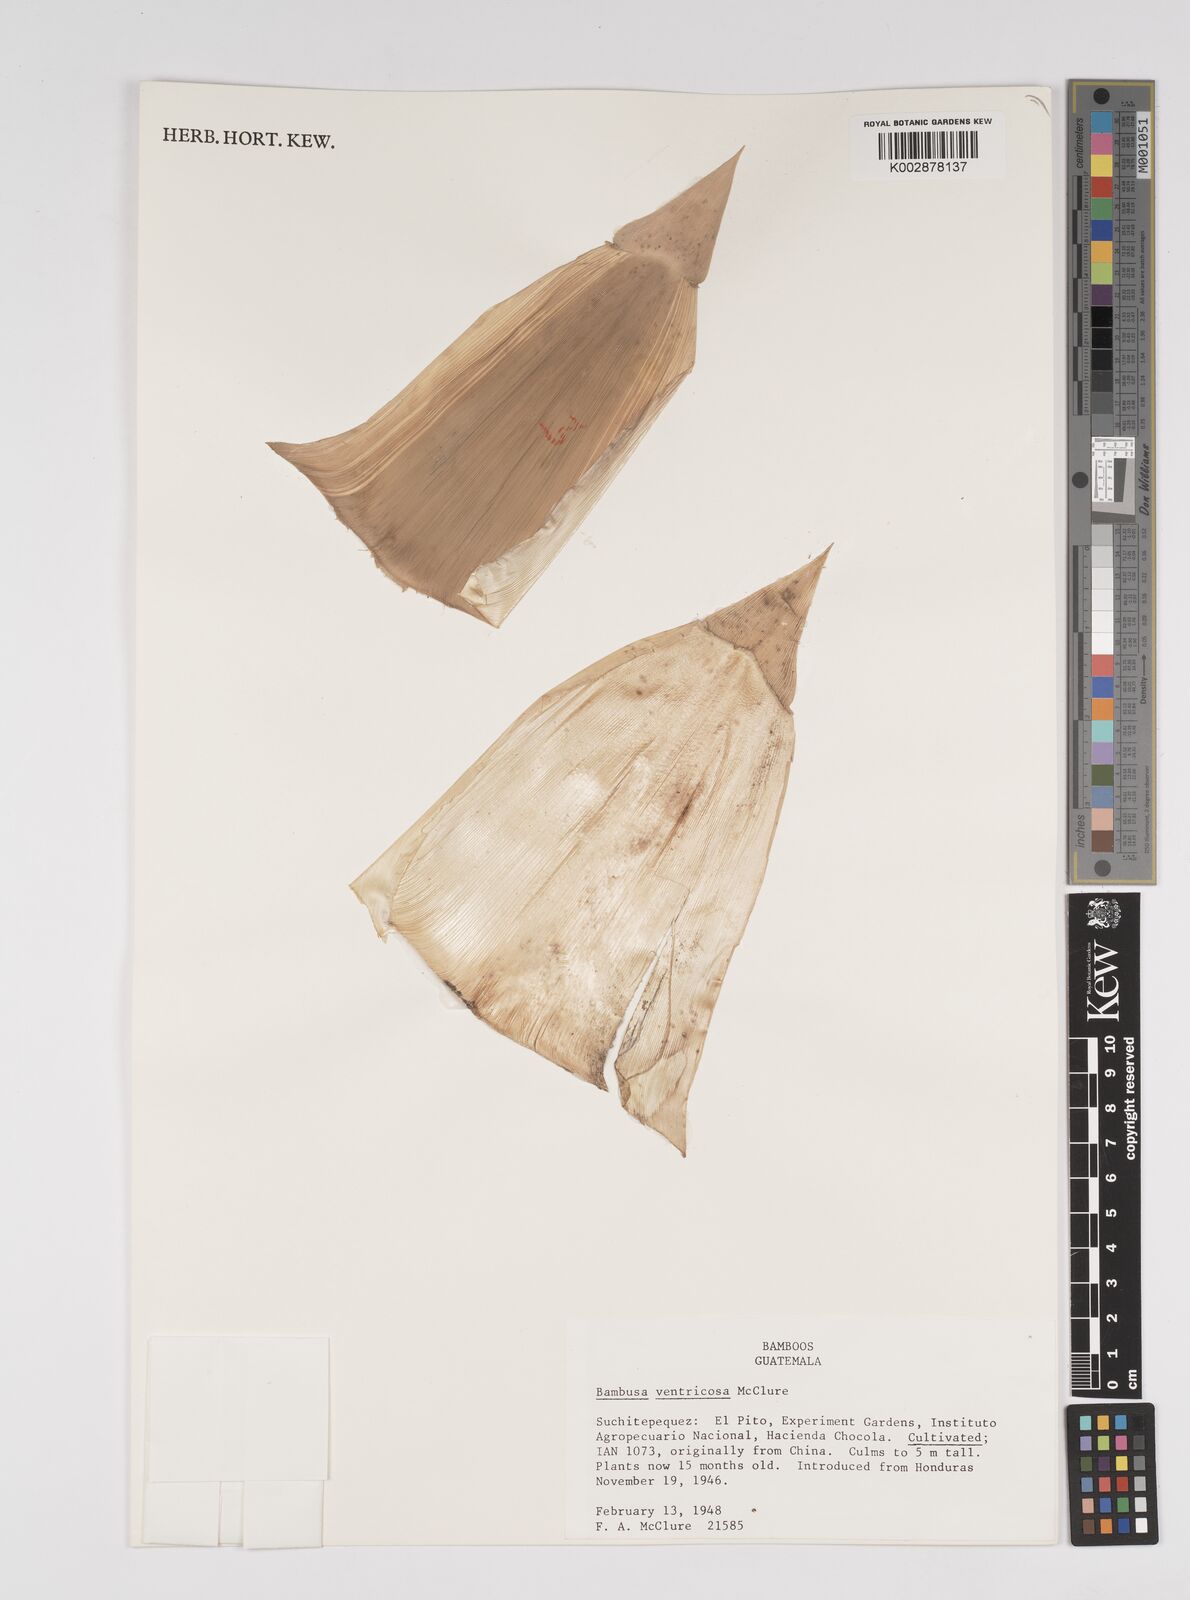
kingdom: Plantae
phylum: Tracheophyta
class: Liliopsida
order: Poales
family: Poaceae
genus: Bambusa
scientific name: Bambusa ventricosa
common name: Buddha bamboo
